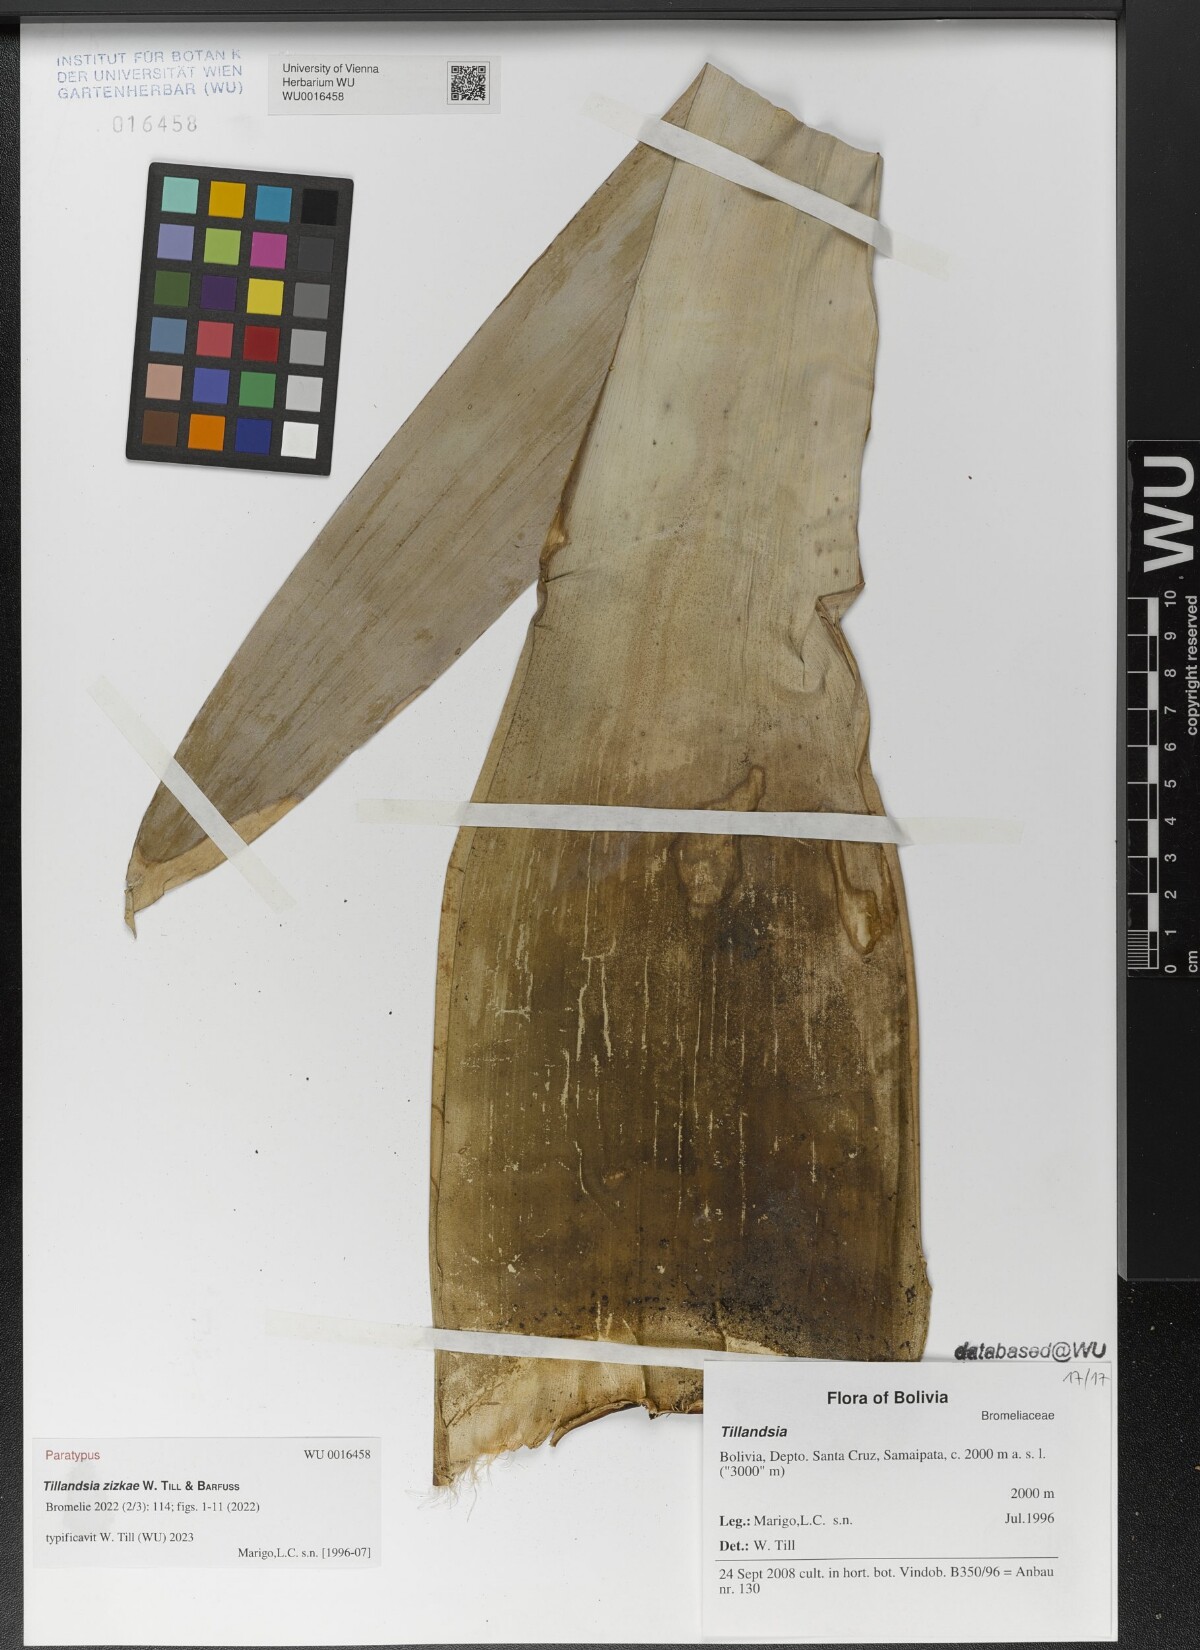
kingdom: Plantae
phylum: Tracheophyta
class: Liliopsida
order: Poales
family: Bromeliaceae
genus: Tillandsia
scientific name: Tillandsia
